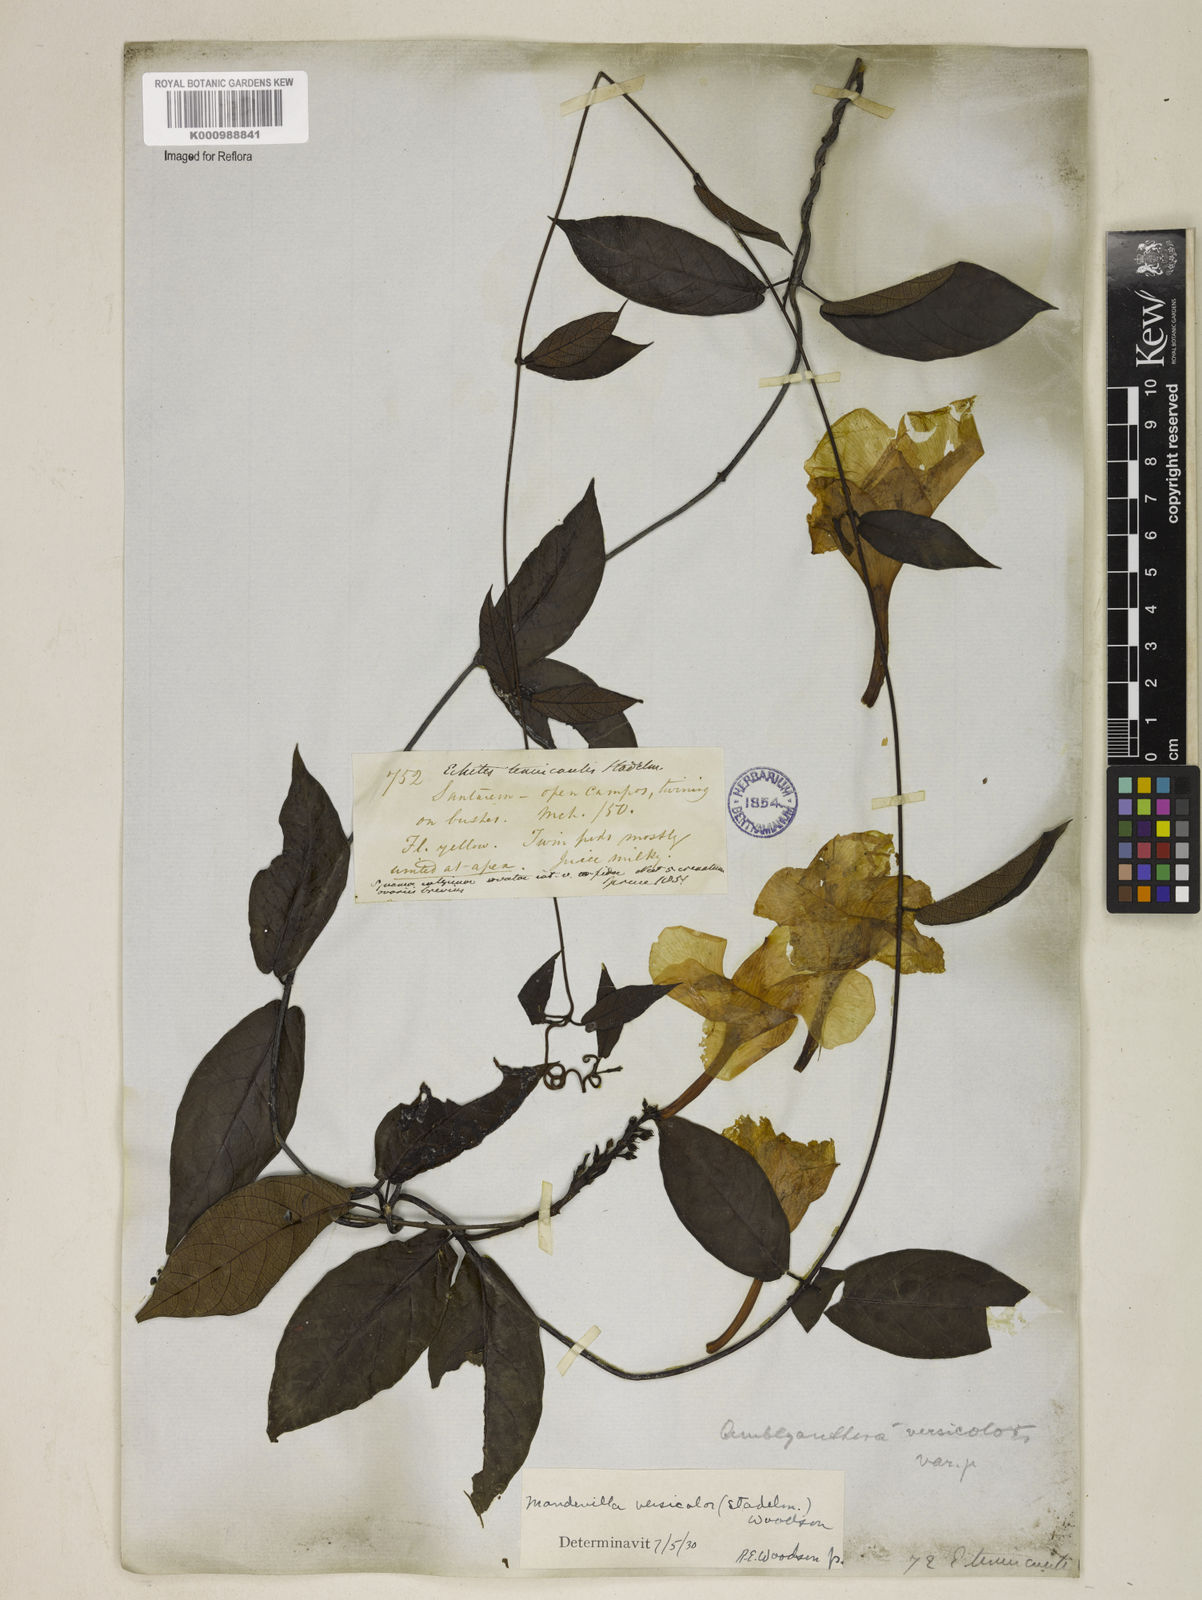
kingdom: Plantae
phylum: Tracheophyta
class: Magnoliopsida
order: Gentianales
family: Apocynaceae
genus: Mandevilla
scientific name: Mandevilla scabra
